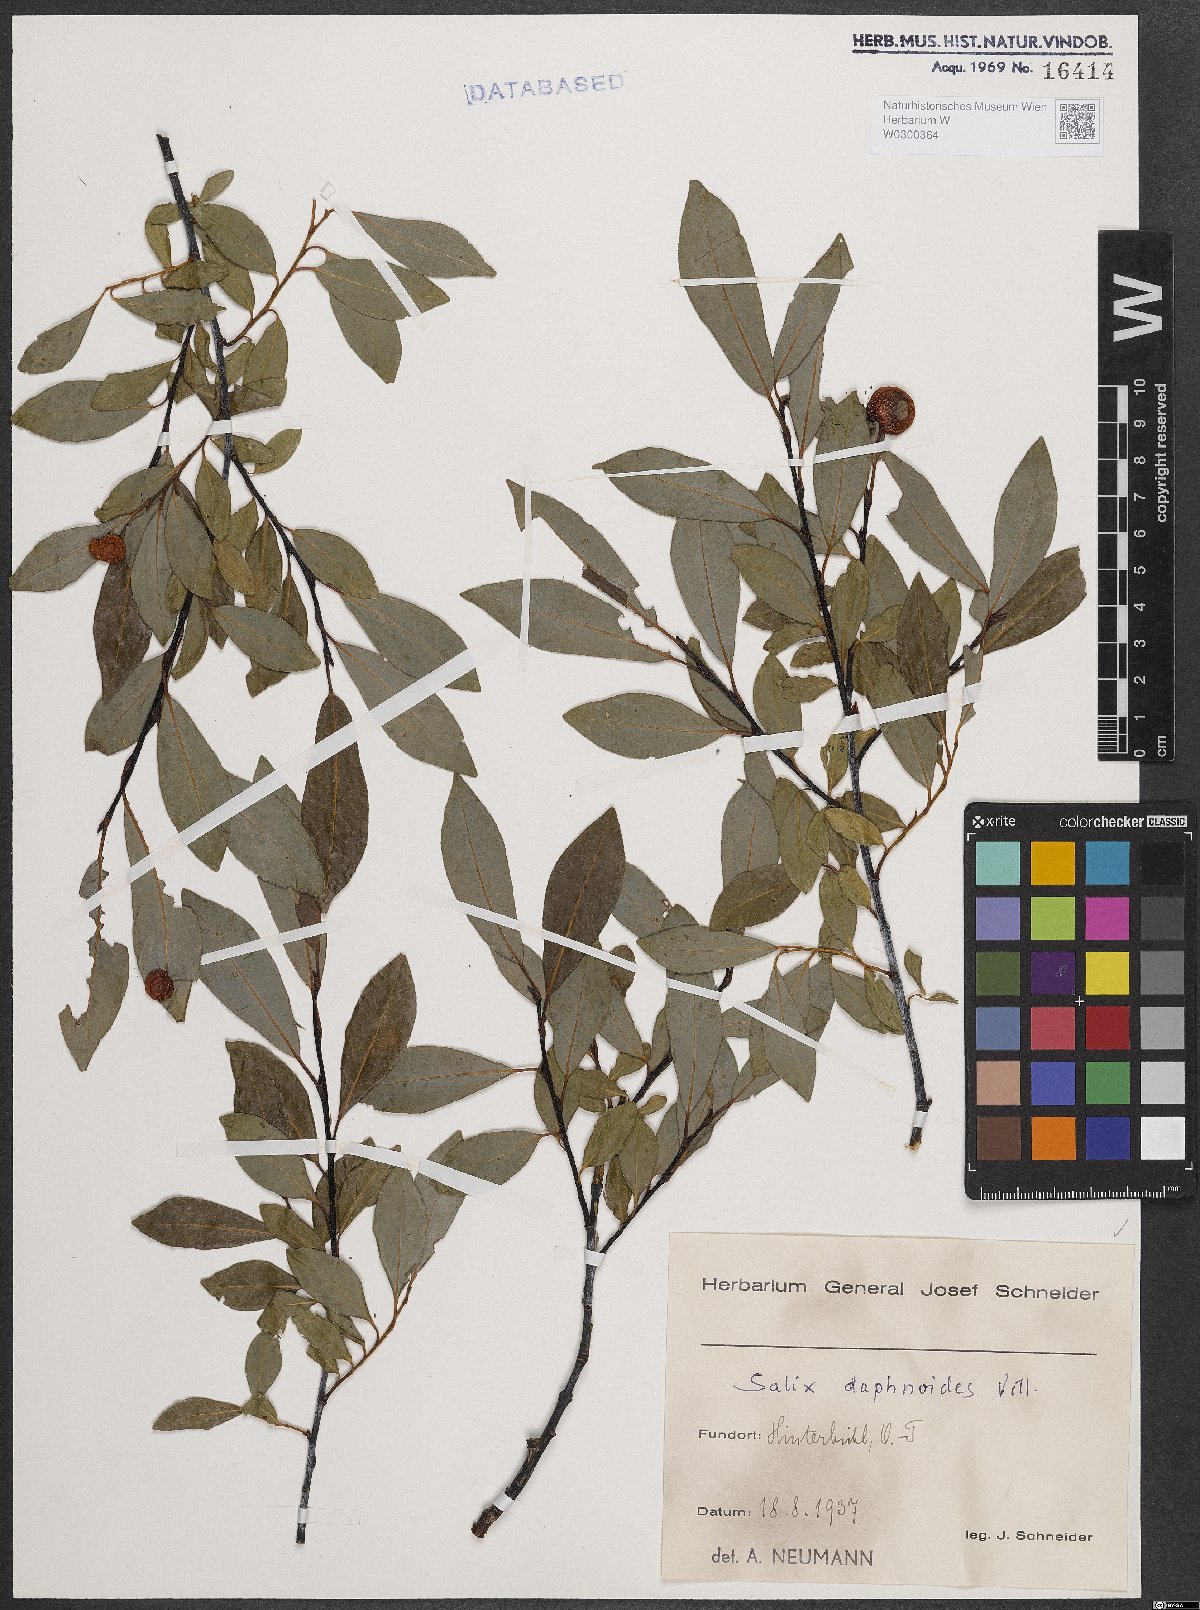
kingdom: Plantae
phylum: Tracheophyta
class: Magnoliopsida
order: Malpighiales
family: Salicaceae
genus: Salix
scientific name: Salix daphnoides
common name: European violet-willow
